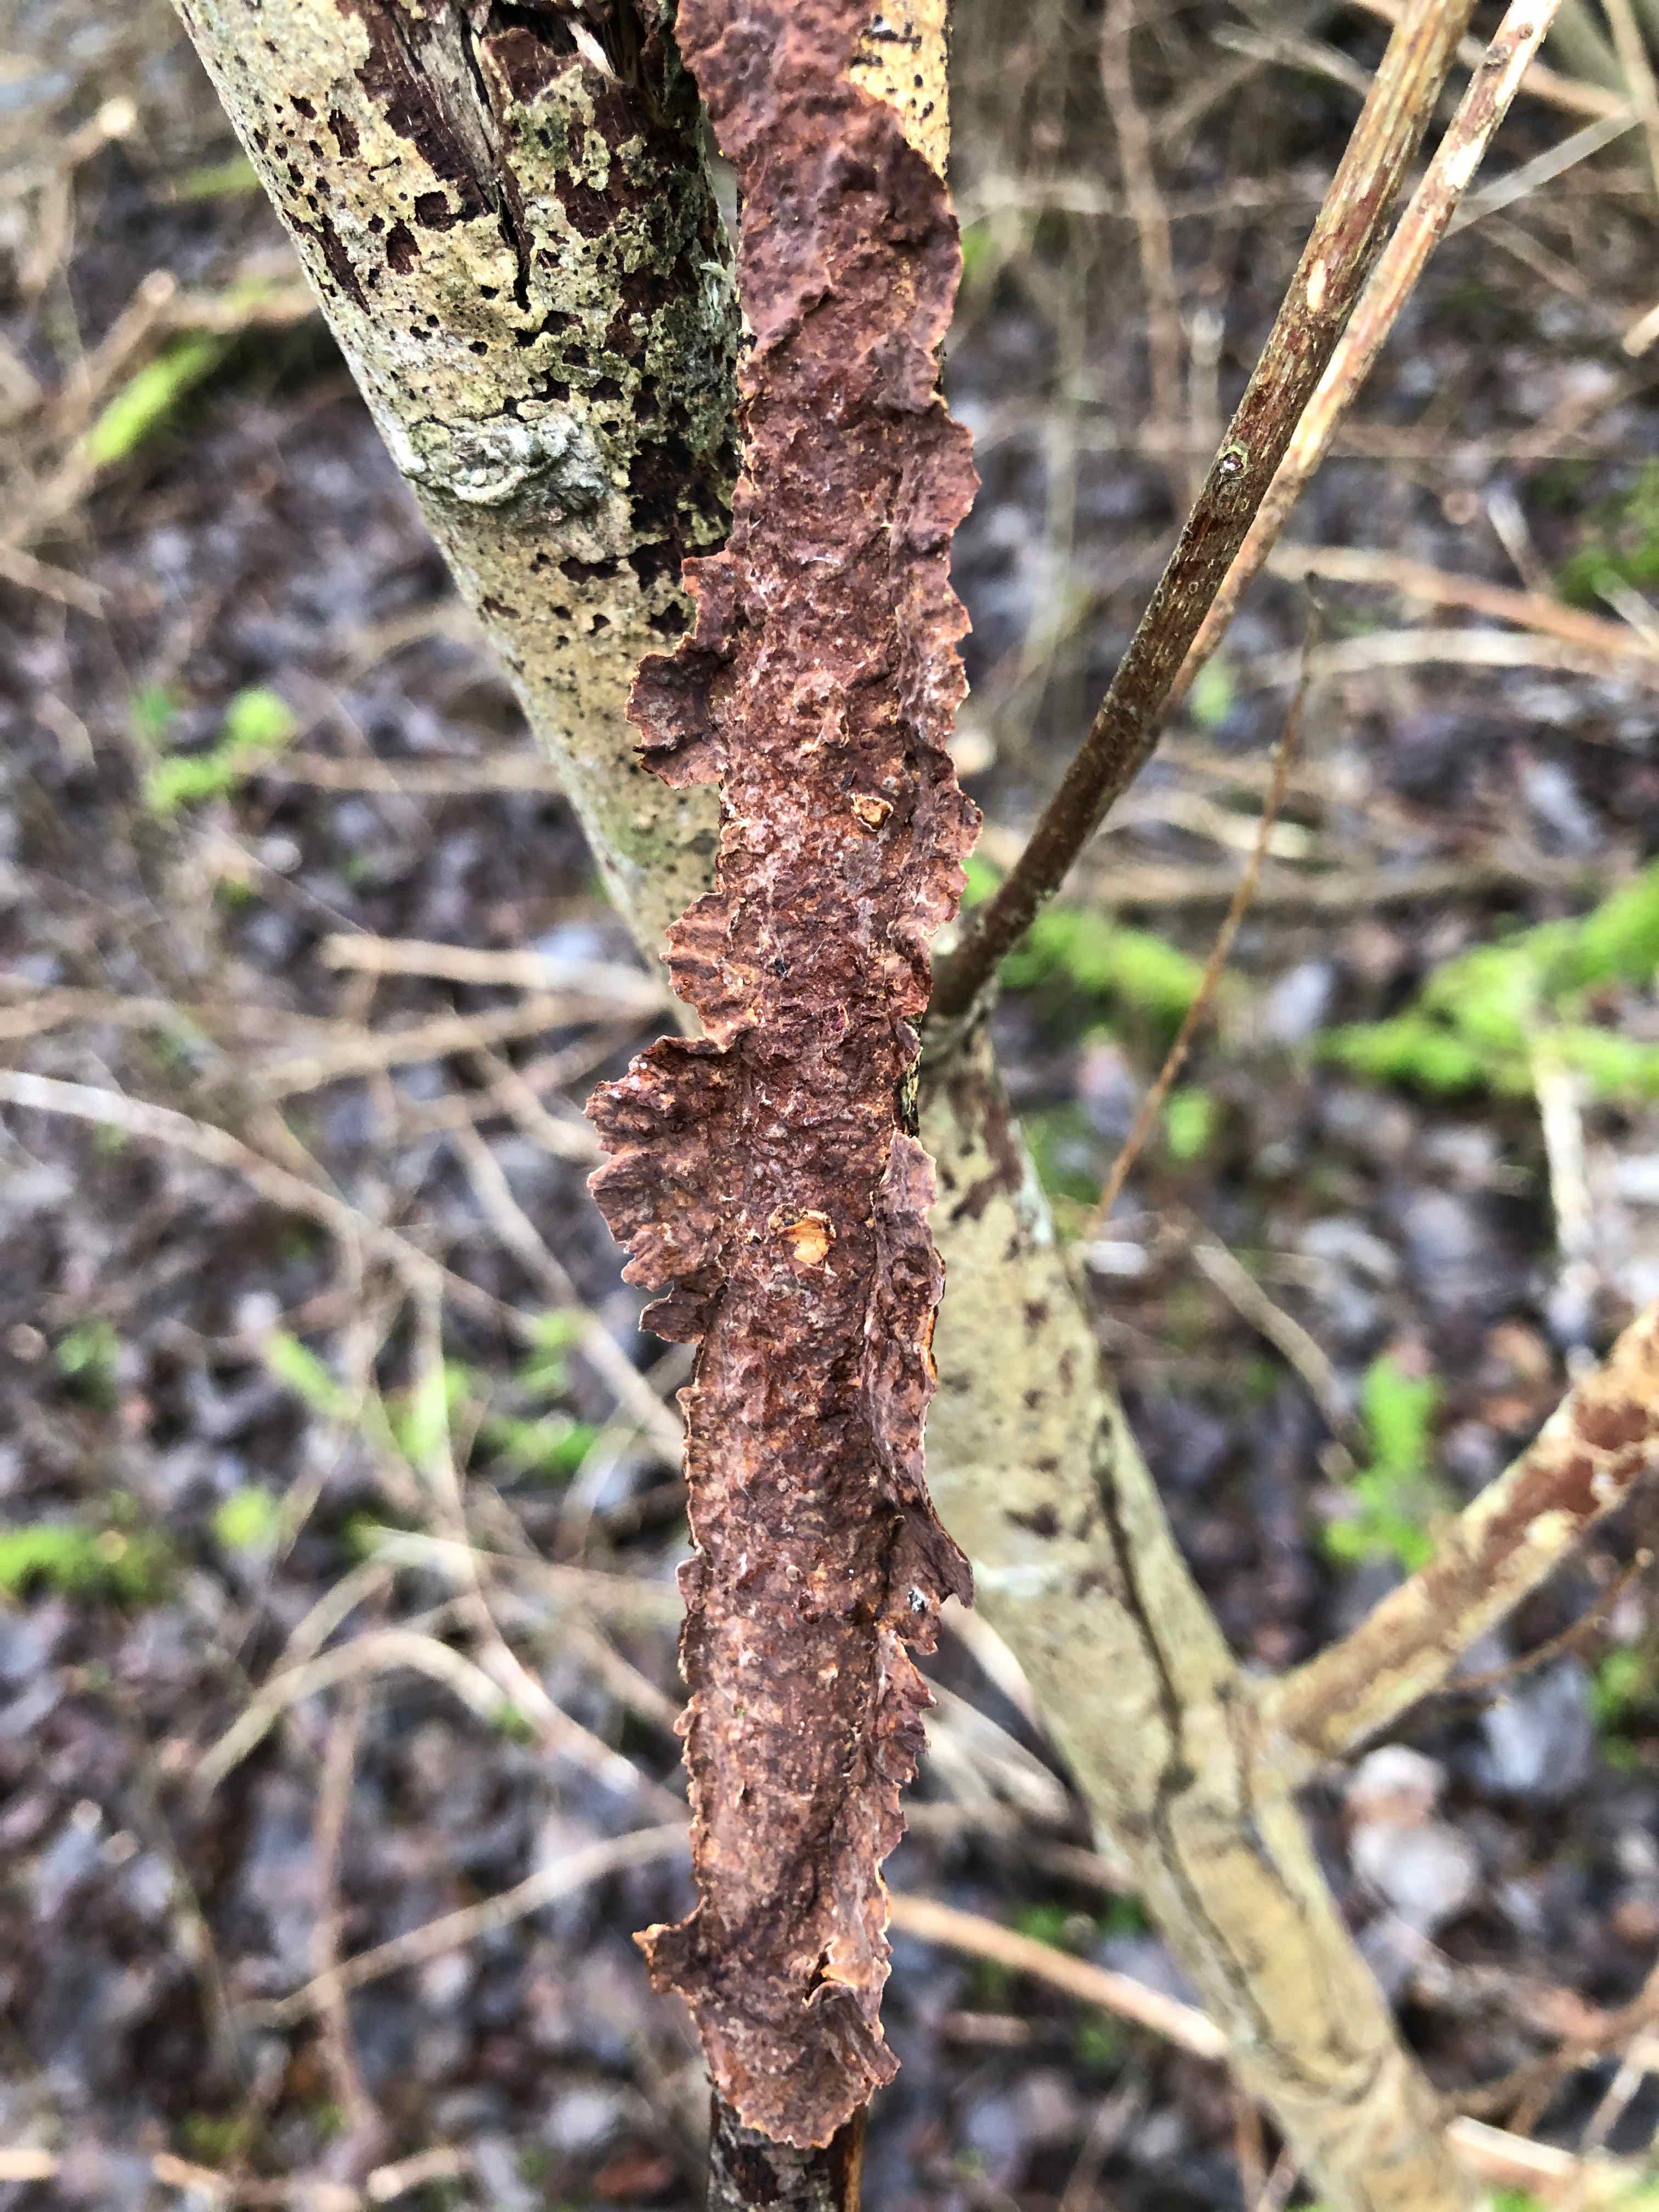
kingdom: Fungi
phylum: Basidiomycota
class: Agaricomycetes
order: Hymenochaetales
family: Hymenochaetaceae
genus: Hydnoporia
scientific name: Hydnoporia tabacina
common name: tobaksbrun ruslædersvamp
